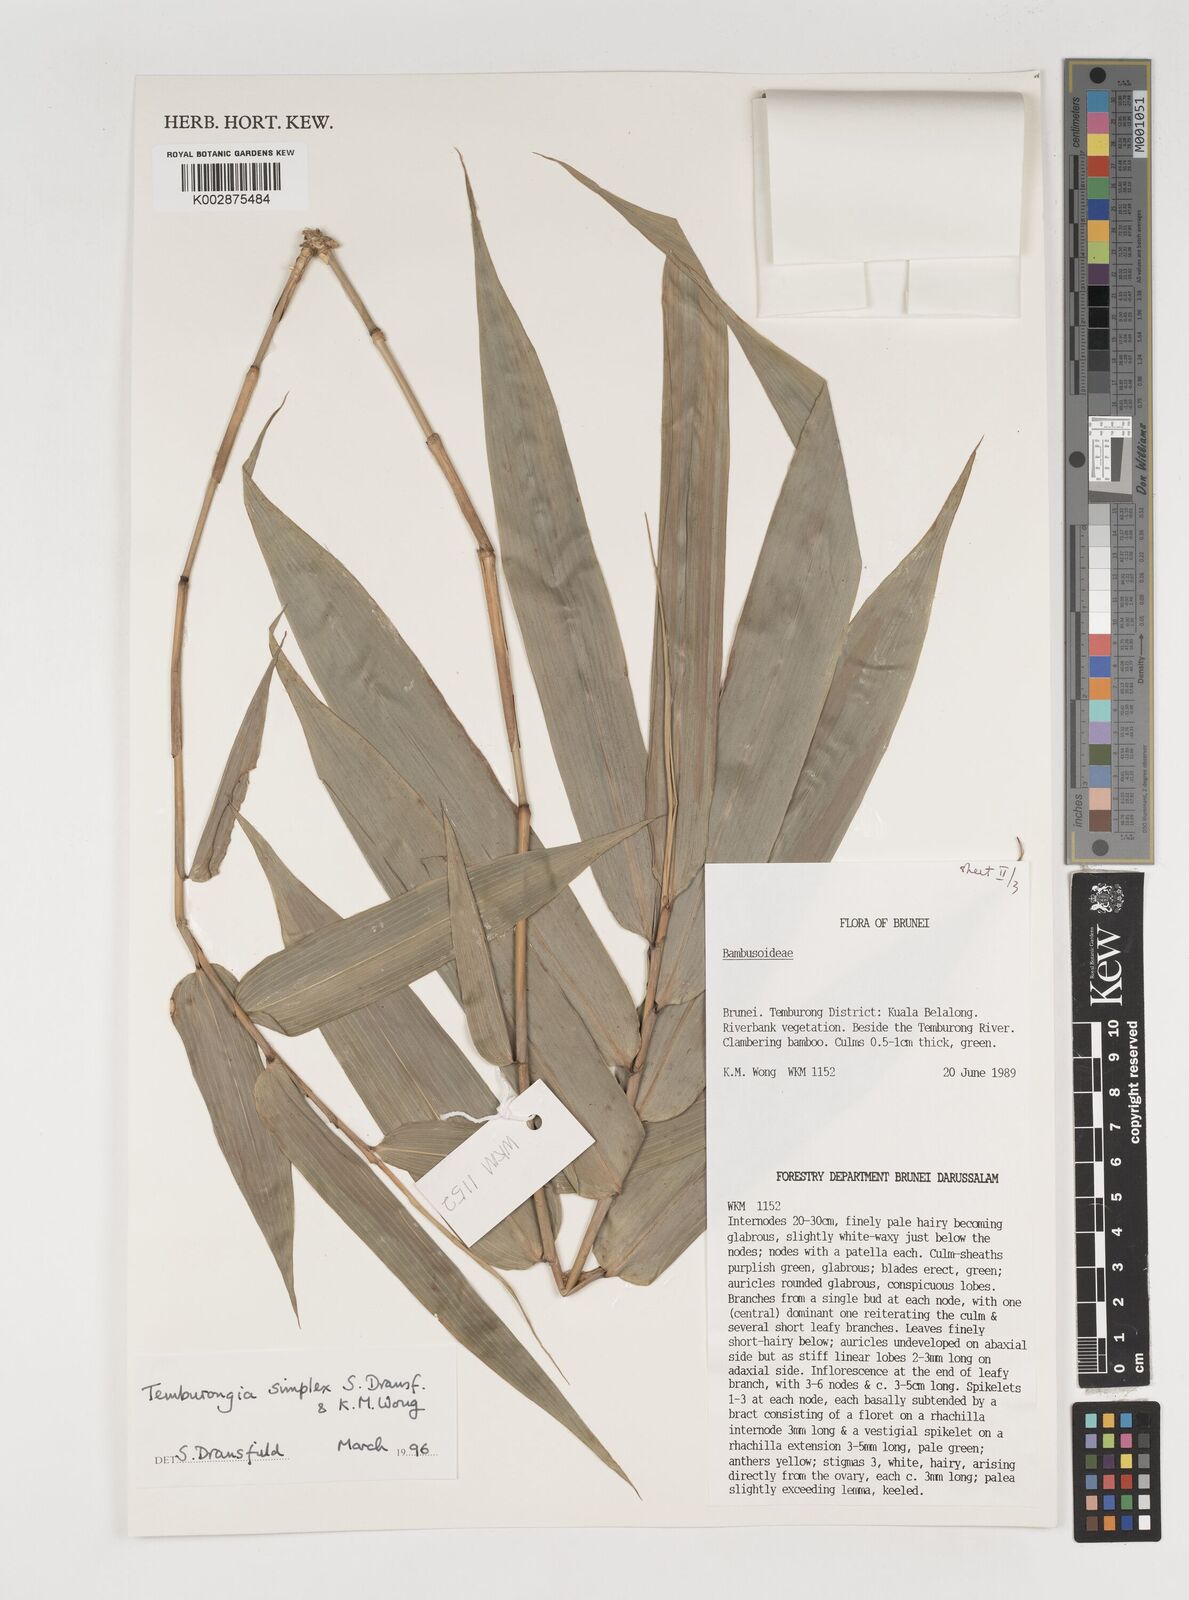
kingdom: Plantae
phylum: Tracheophyta
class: Liliopsida
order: Poales
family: Poaceae
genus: Temburongia
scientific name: Temburongia
